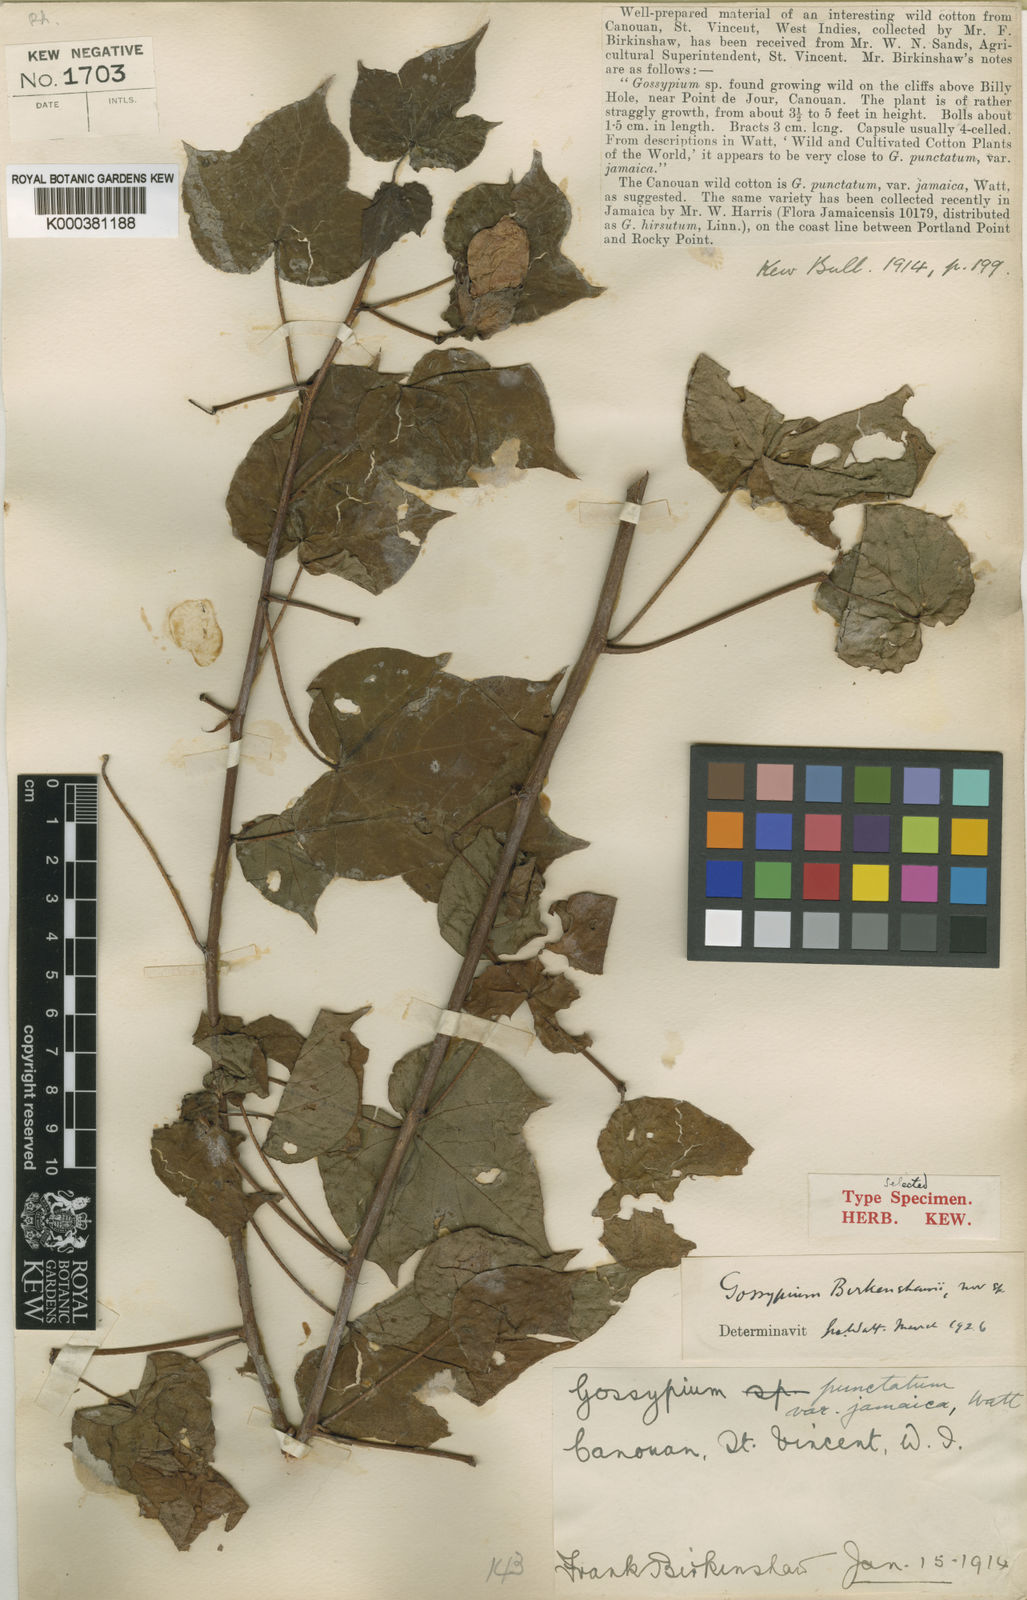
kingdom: Plantae
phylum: Tracheophyta
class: Magnoliopsida
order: Malvales
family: Malvaceae
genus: Gossypium
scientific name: Gossypium hirsutum
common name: Cotton
